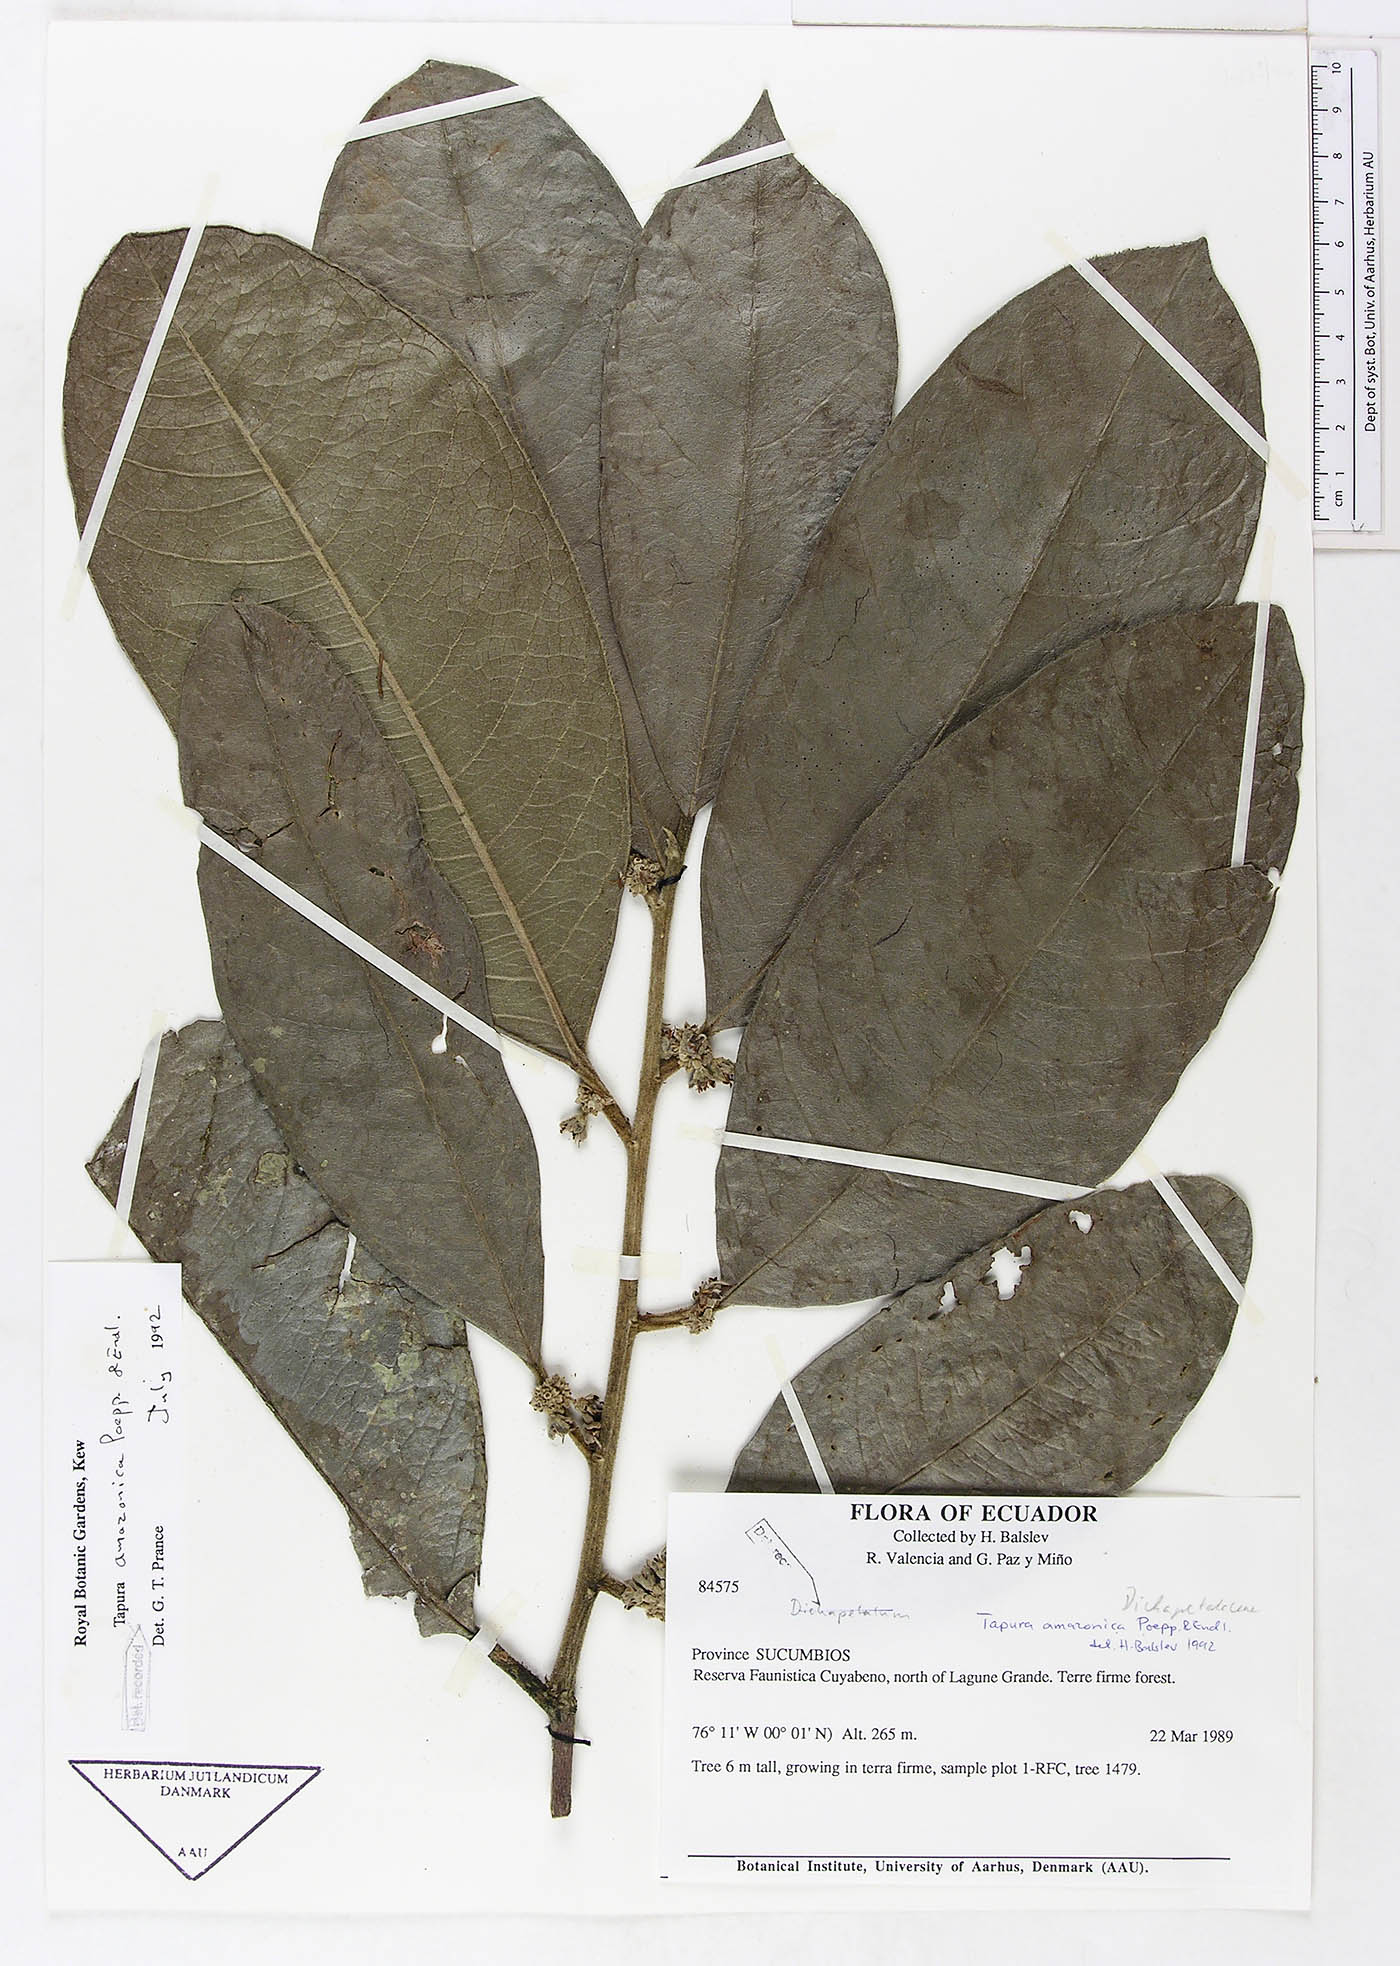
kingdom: Plantae
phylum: Tracheophyta
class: Magnoliopsida
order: Malpighiales
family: Dichapetalaceae
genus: Tapura
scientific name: Tapura amazonica
